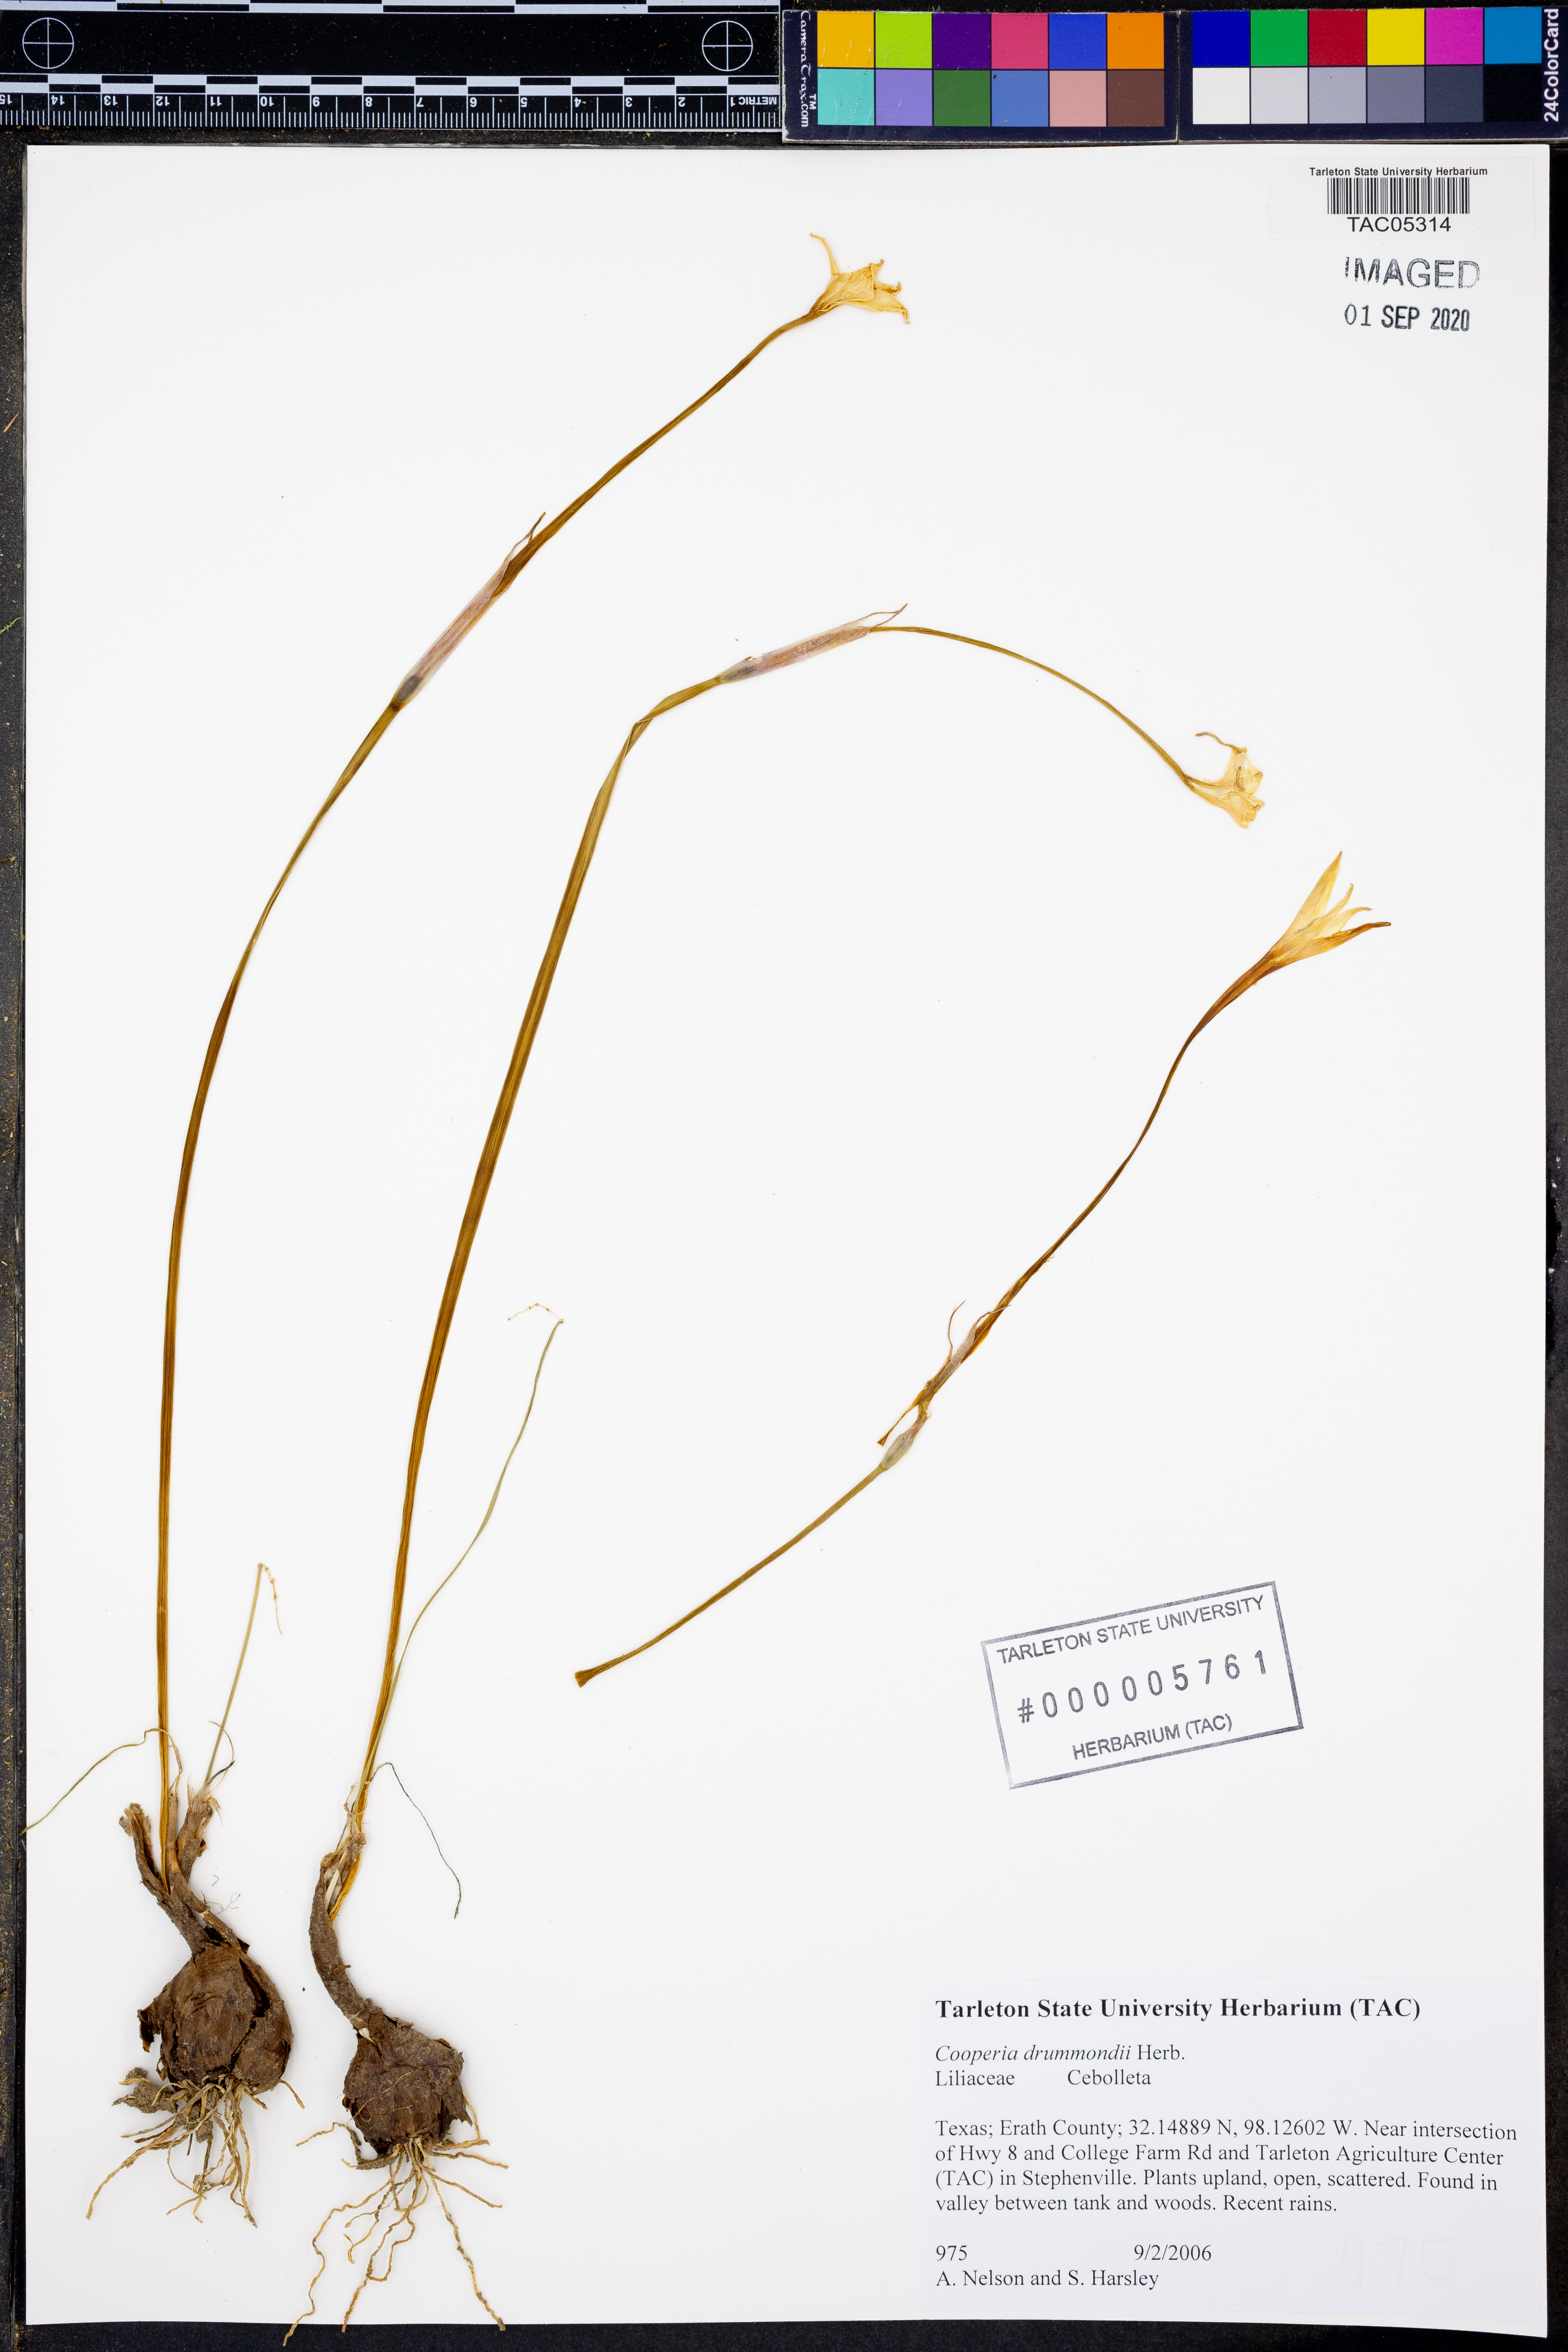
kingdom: Plantae
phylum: Tracheophyta
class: Liliopsida
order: Asparagales
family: Amaryllidaceae
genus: Zephyranthes
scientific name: Zephyranthes chlorosolen
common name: Evening rain-lily
